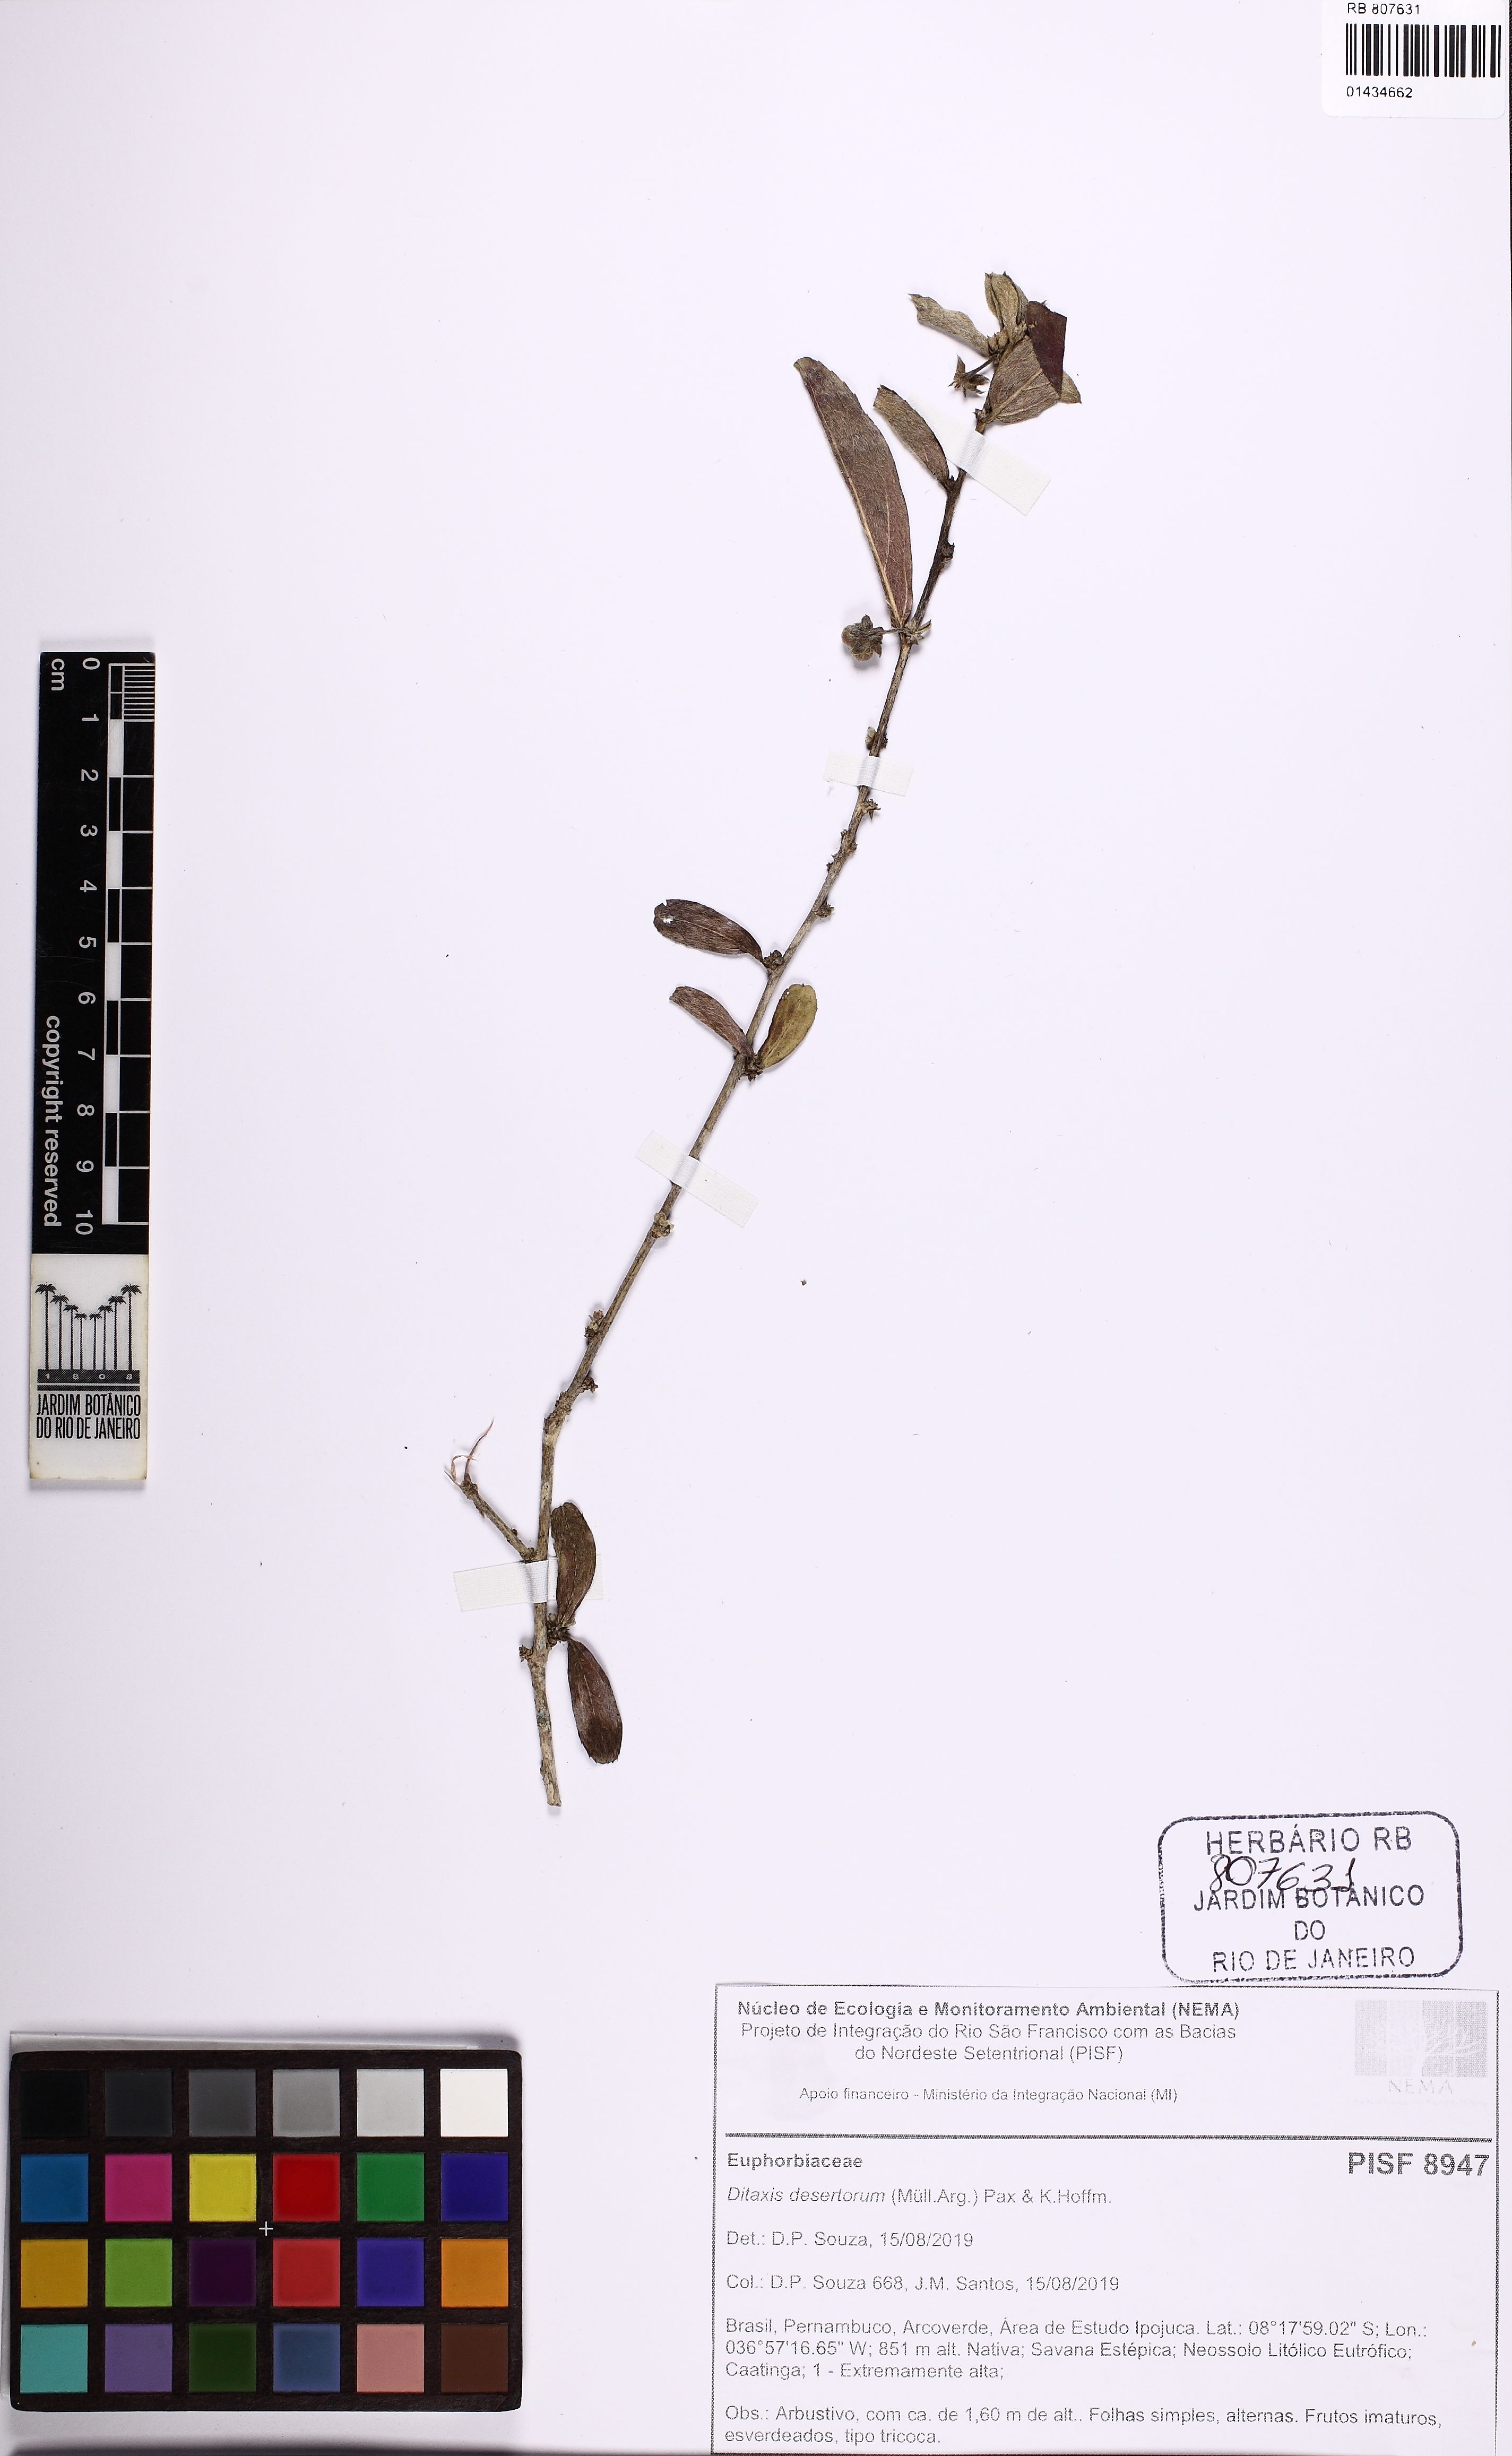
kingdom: Plantae
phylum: Tracheophyta
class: Magnoliopsida
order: Malpighiales
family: Euphorbiaceae
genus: Ditaxis
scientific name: Ditaxis desertorum
